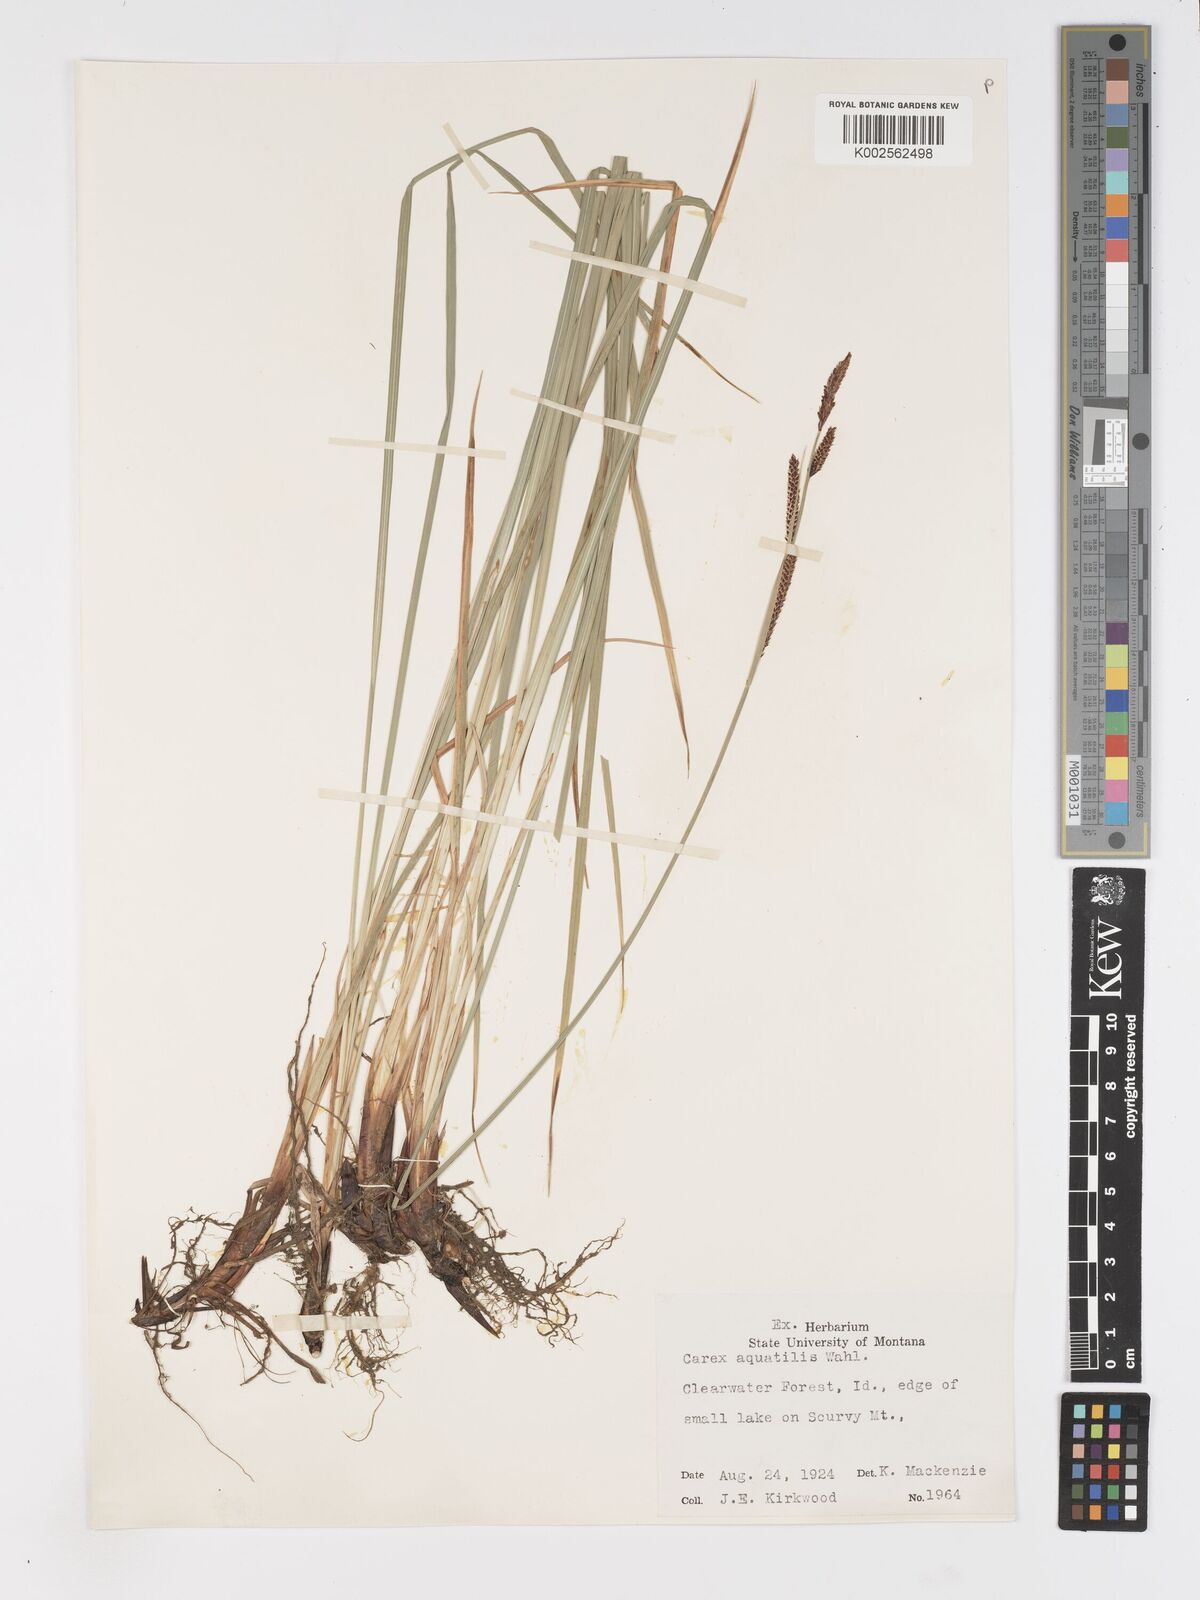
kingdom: Plantae
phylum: Tracheophyta
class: Liliopsida
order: Poales
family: Cyperaceae
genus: Carex
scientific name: Carex
